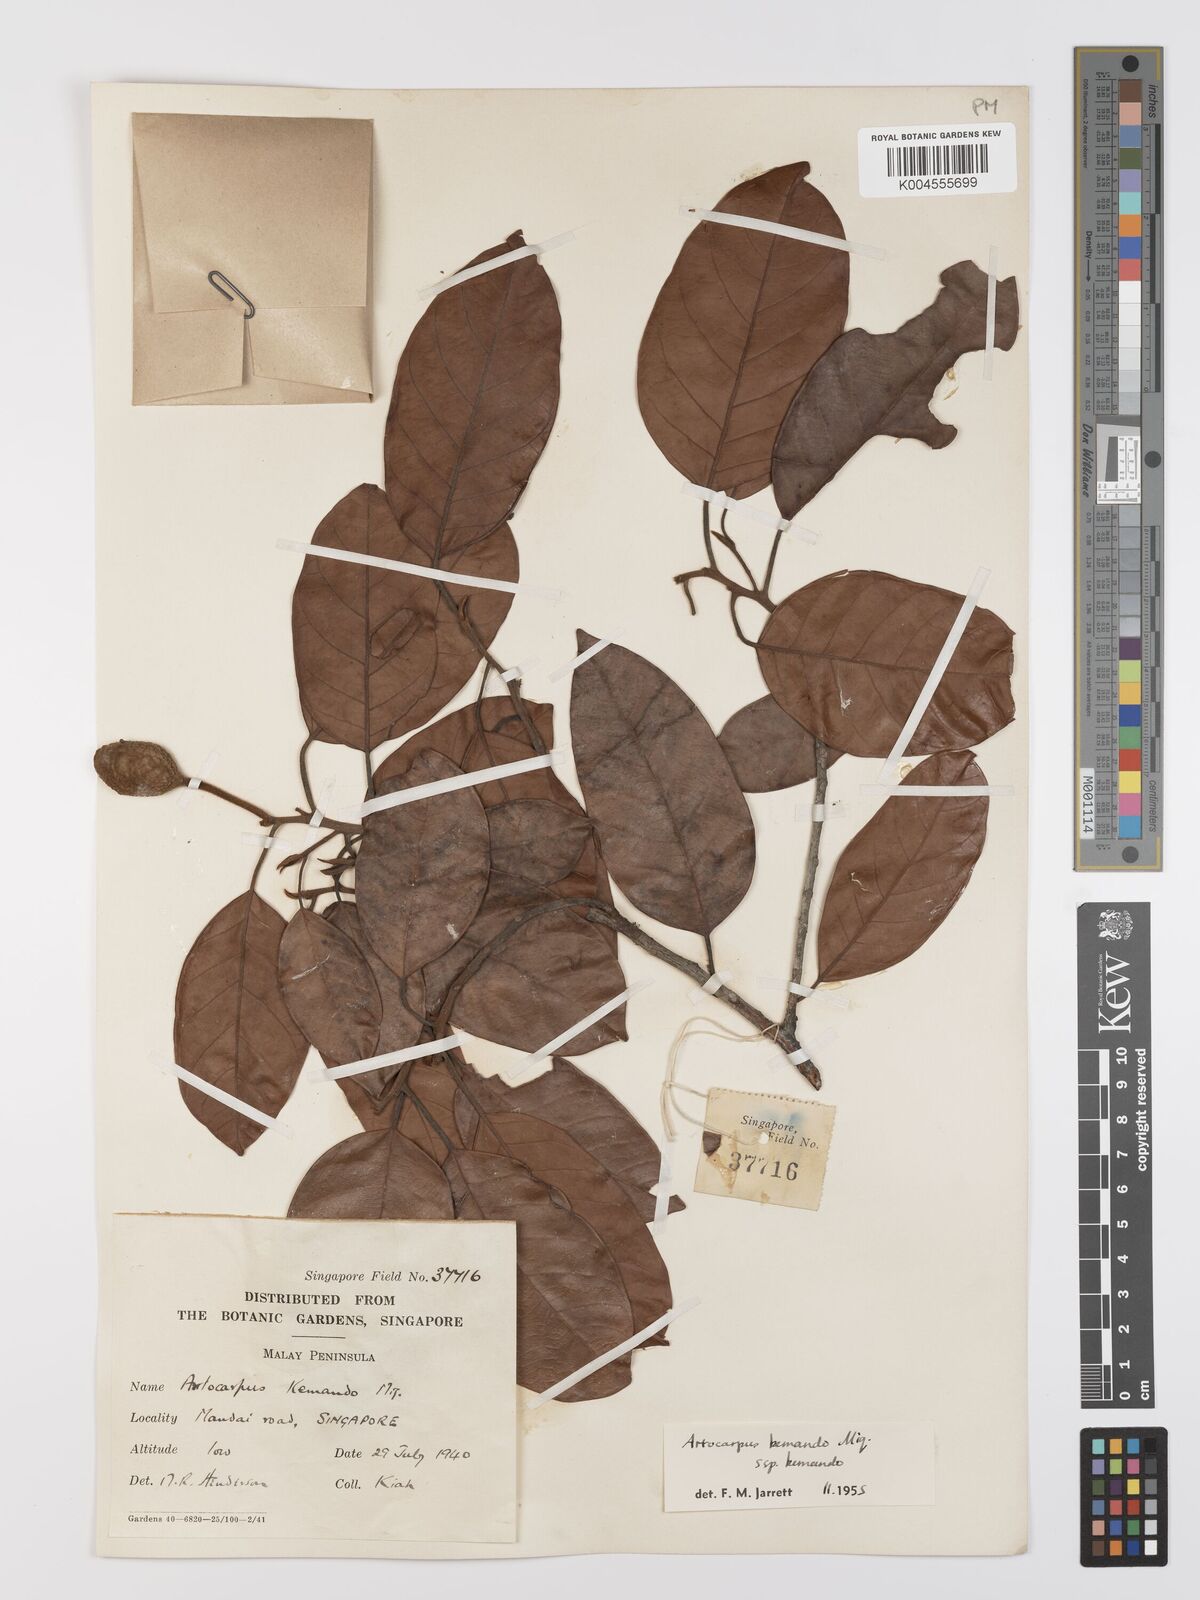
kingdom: Plantae
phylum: Tracheophyta
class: Magnoliopsida
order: Rosales
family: Moraceae
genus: Artocarpus
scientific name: Artocarpus kemando
